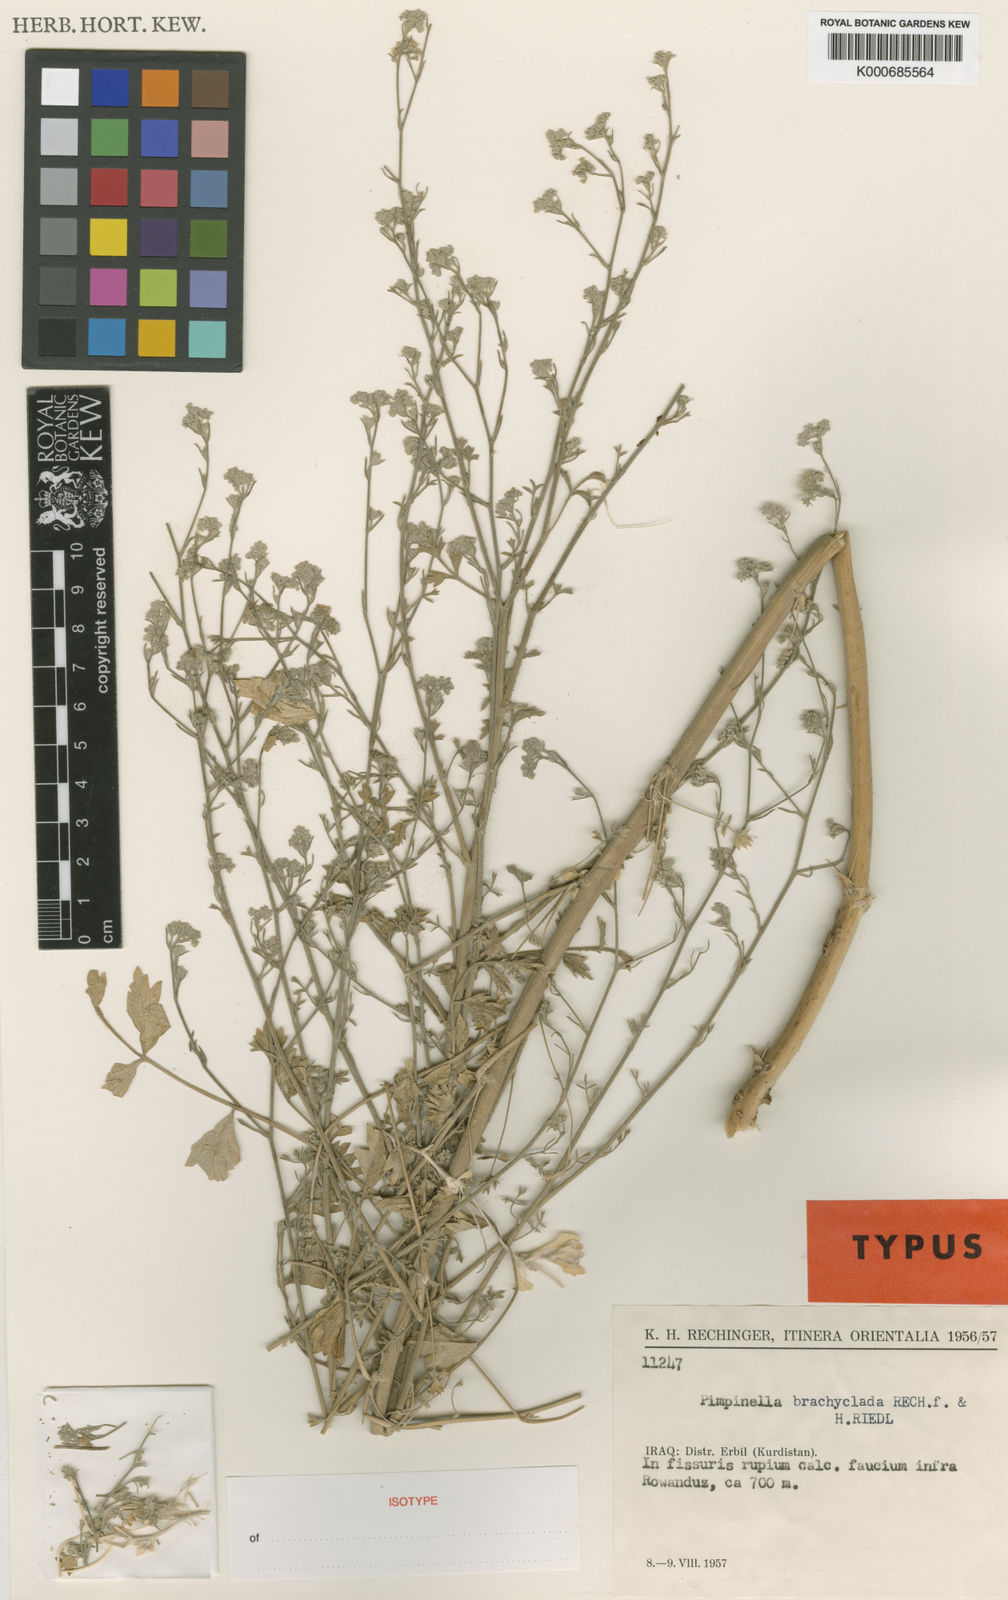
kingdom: Plantae
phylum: Tracheophyta
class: Magnoliopsida
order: Apiales
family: Apiaceae
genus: Pimpinella
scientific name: Pimpinella brachyclada
